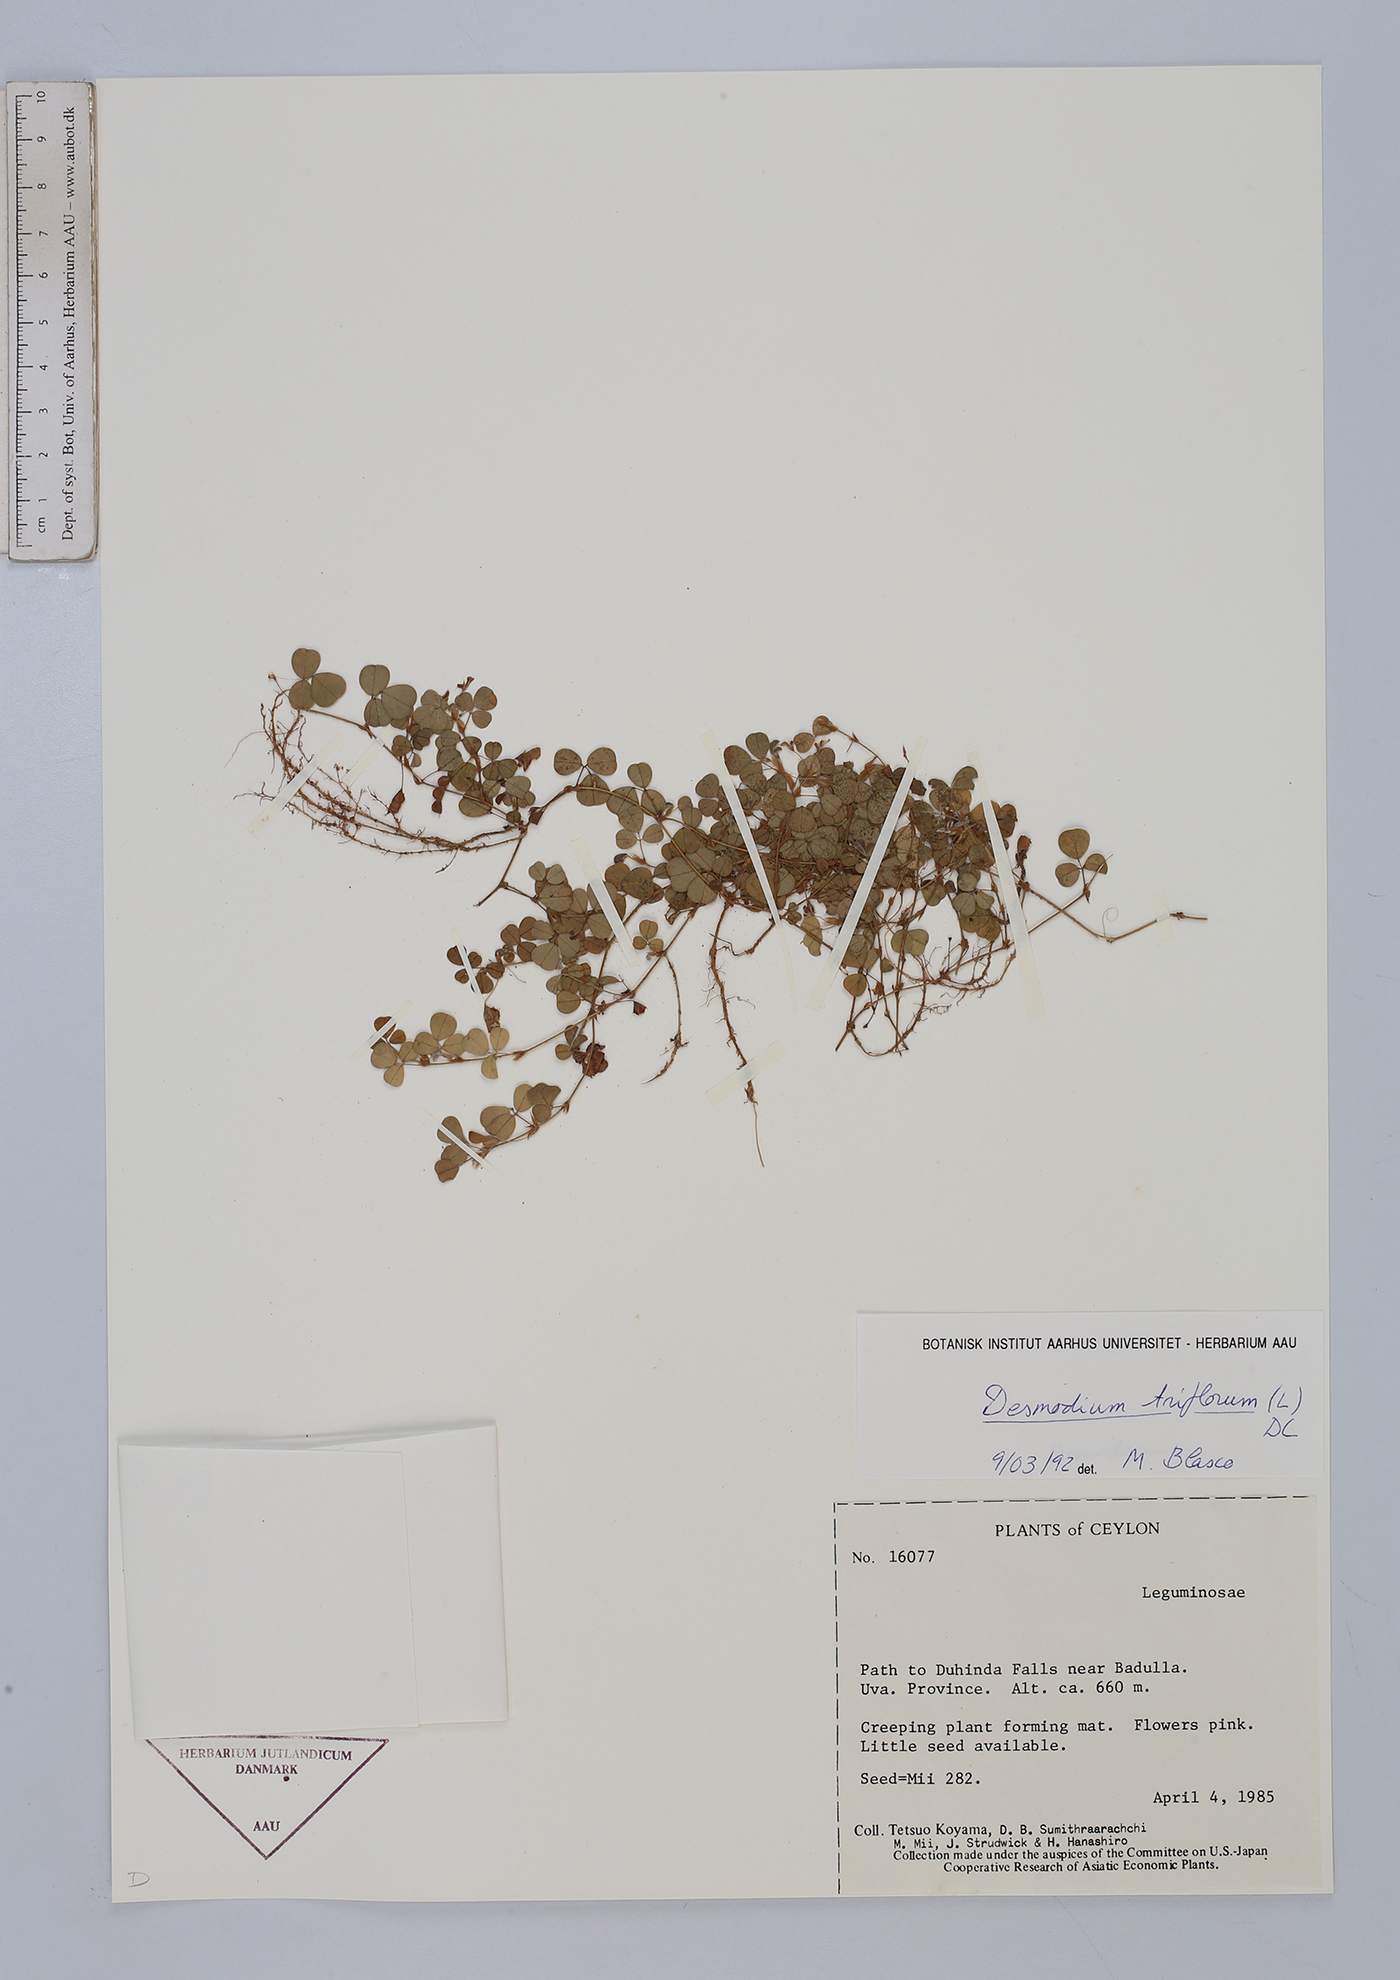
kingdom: Plantae
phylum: Tracheophyta
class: Magnoliopsida
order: Fabales
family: Fabaceae
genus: Grona
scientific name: Grona triflora
